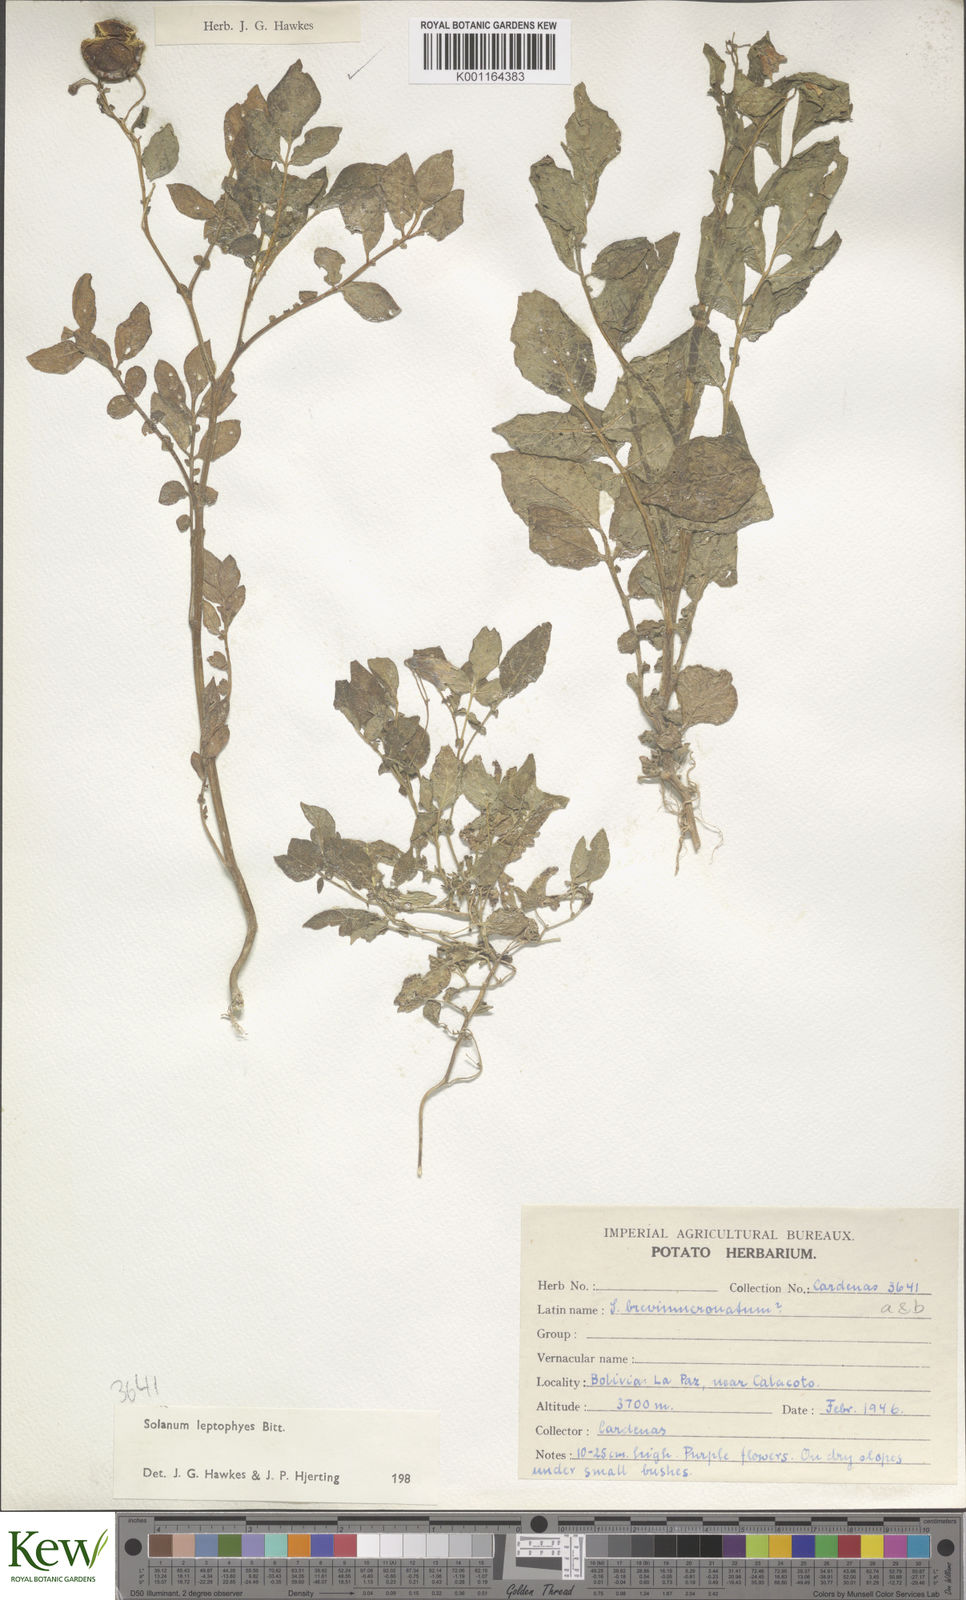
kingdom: Plantae
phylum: Tracheophyta
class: Magnoliopsida
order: Solanales
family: Solanaceae
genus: Solanum
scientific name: Solanum brevicaule
